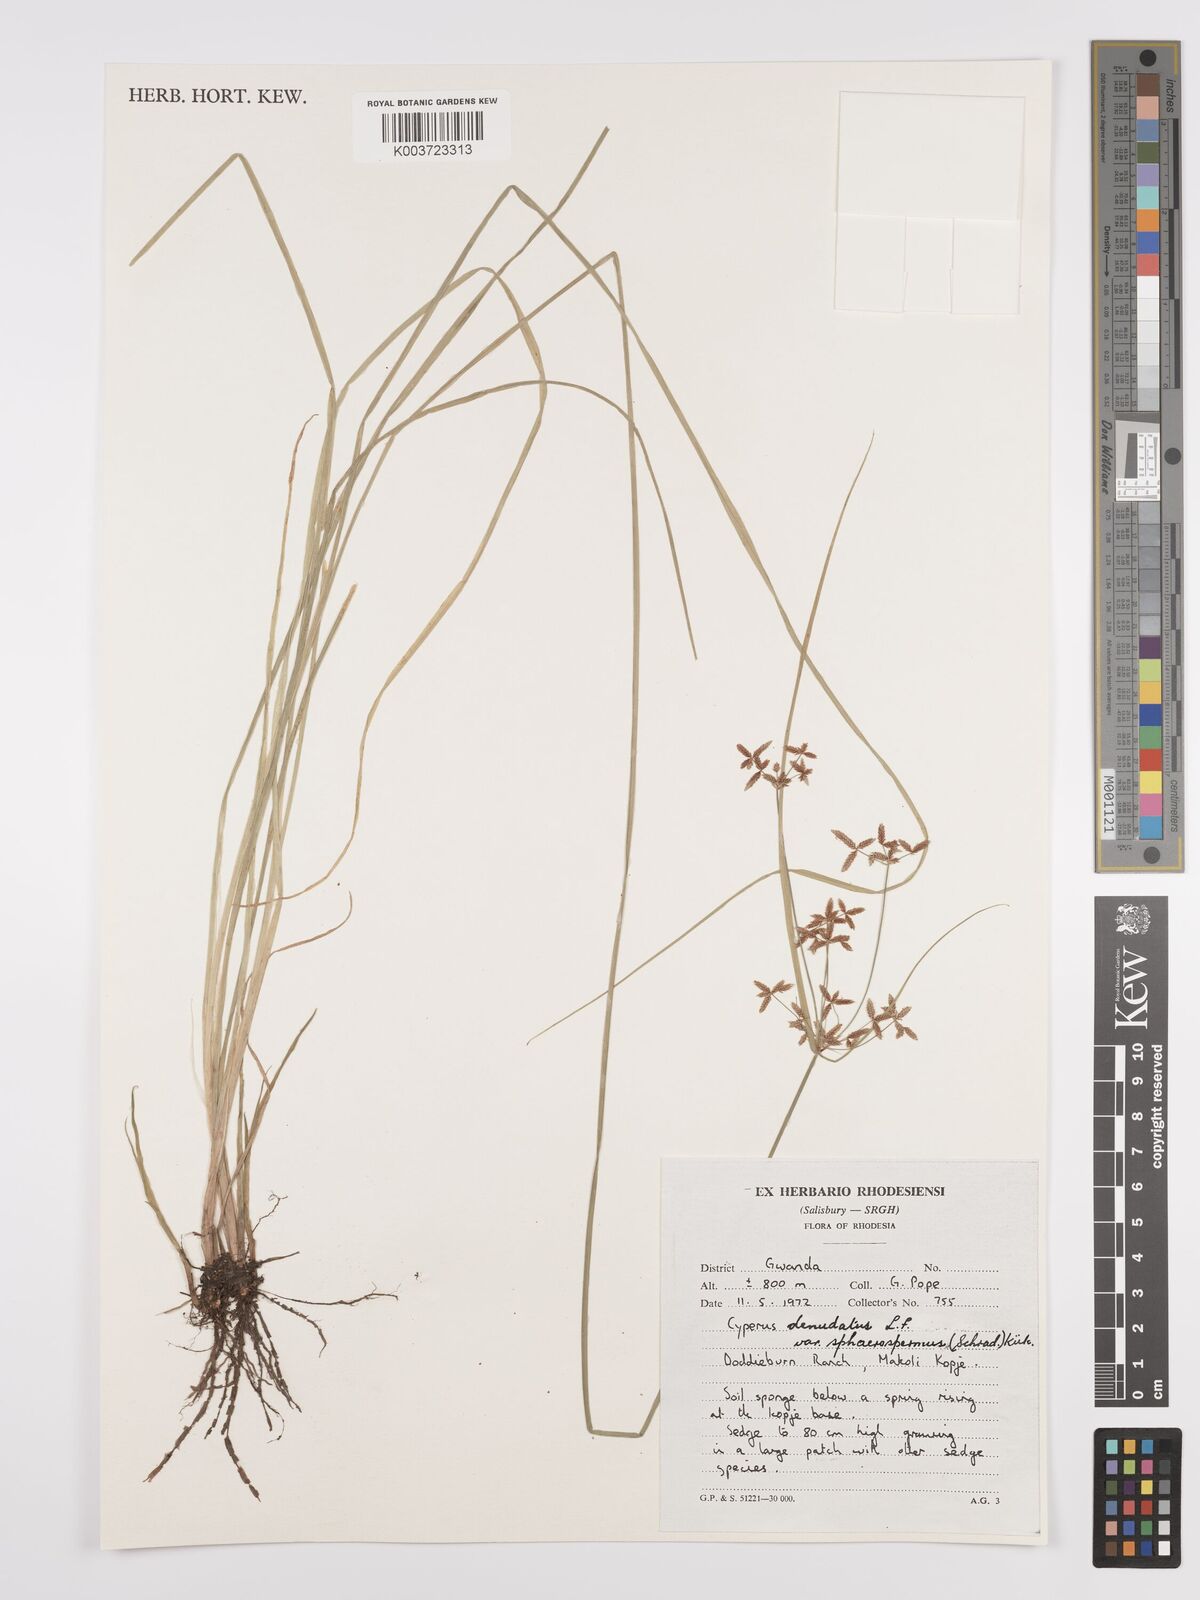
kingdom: Plantae
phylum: Tracheophyta
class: Liliopsida
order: Poales
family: Cyperaceae
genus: Cyperus
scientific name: Cyperus denudatus
